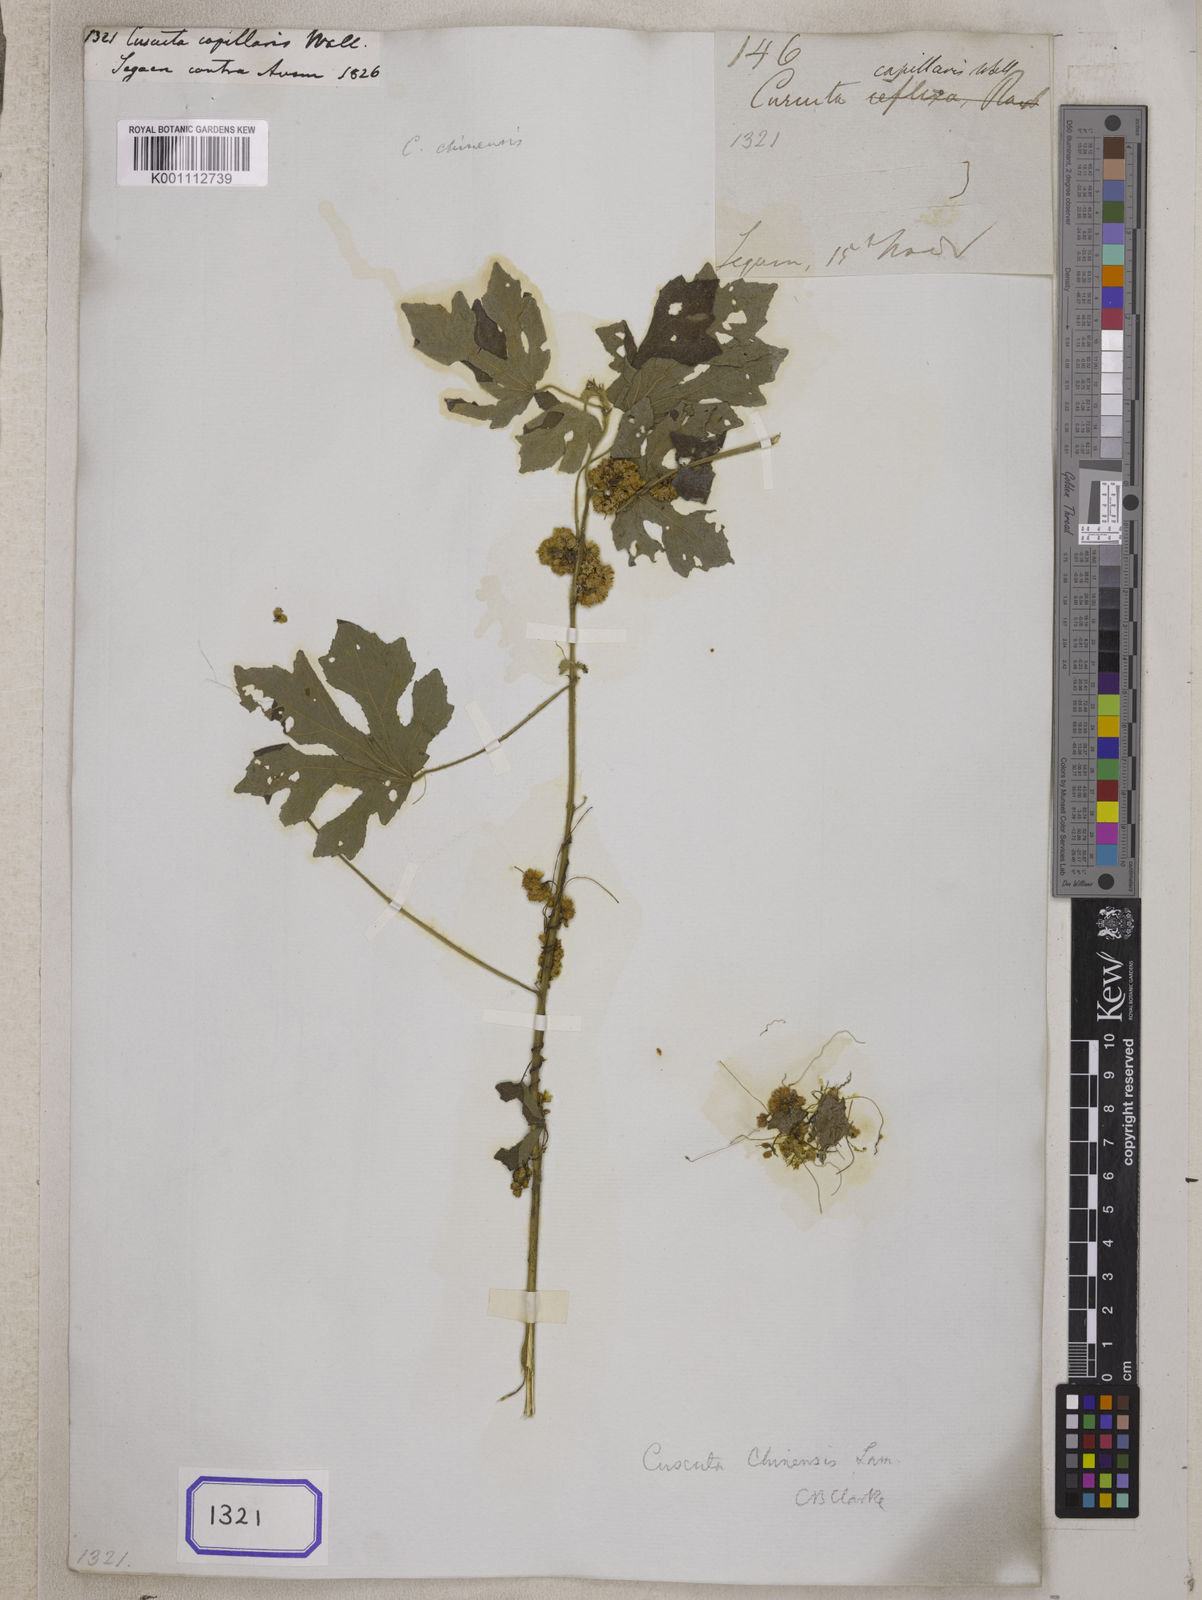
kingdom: Plantae
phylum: Tracheophyta
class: Magnoliopsida
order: Solanales
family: Convolvulaceae
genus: Cuscuta
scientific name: Cuscuta
